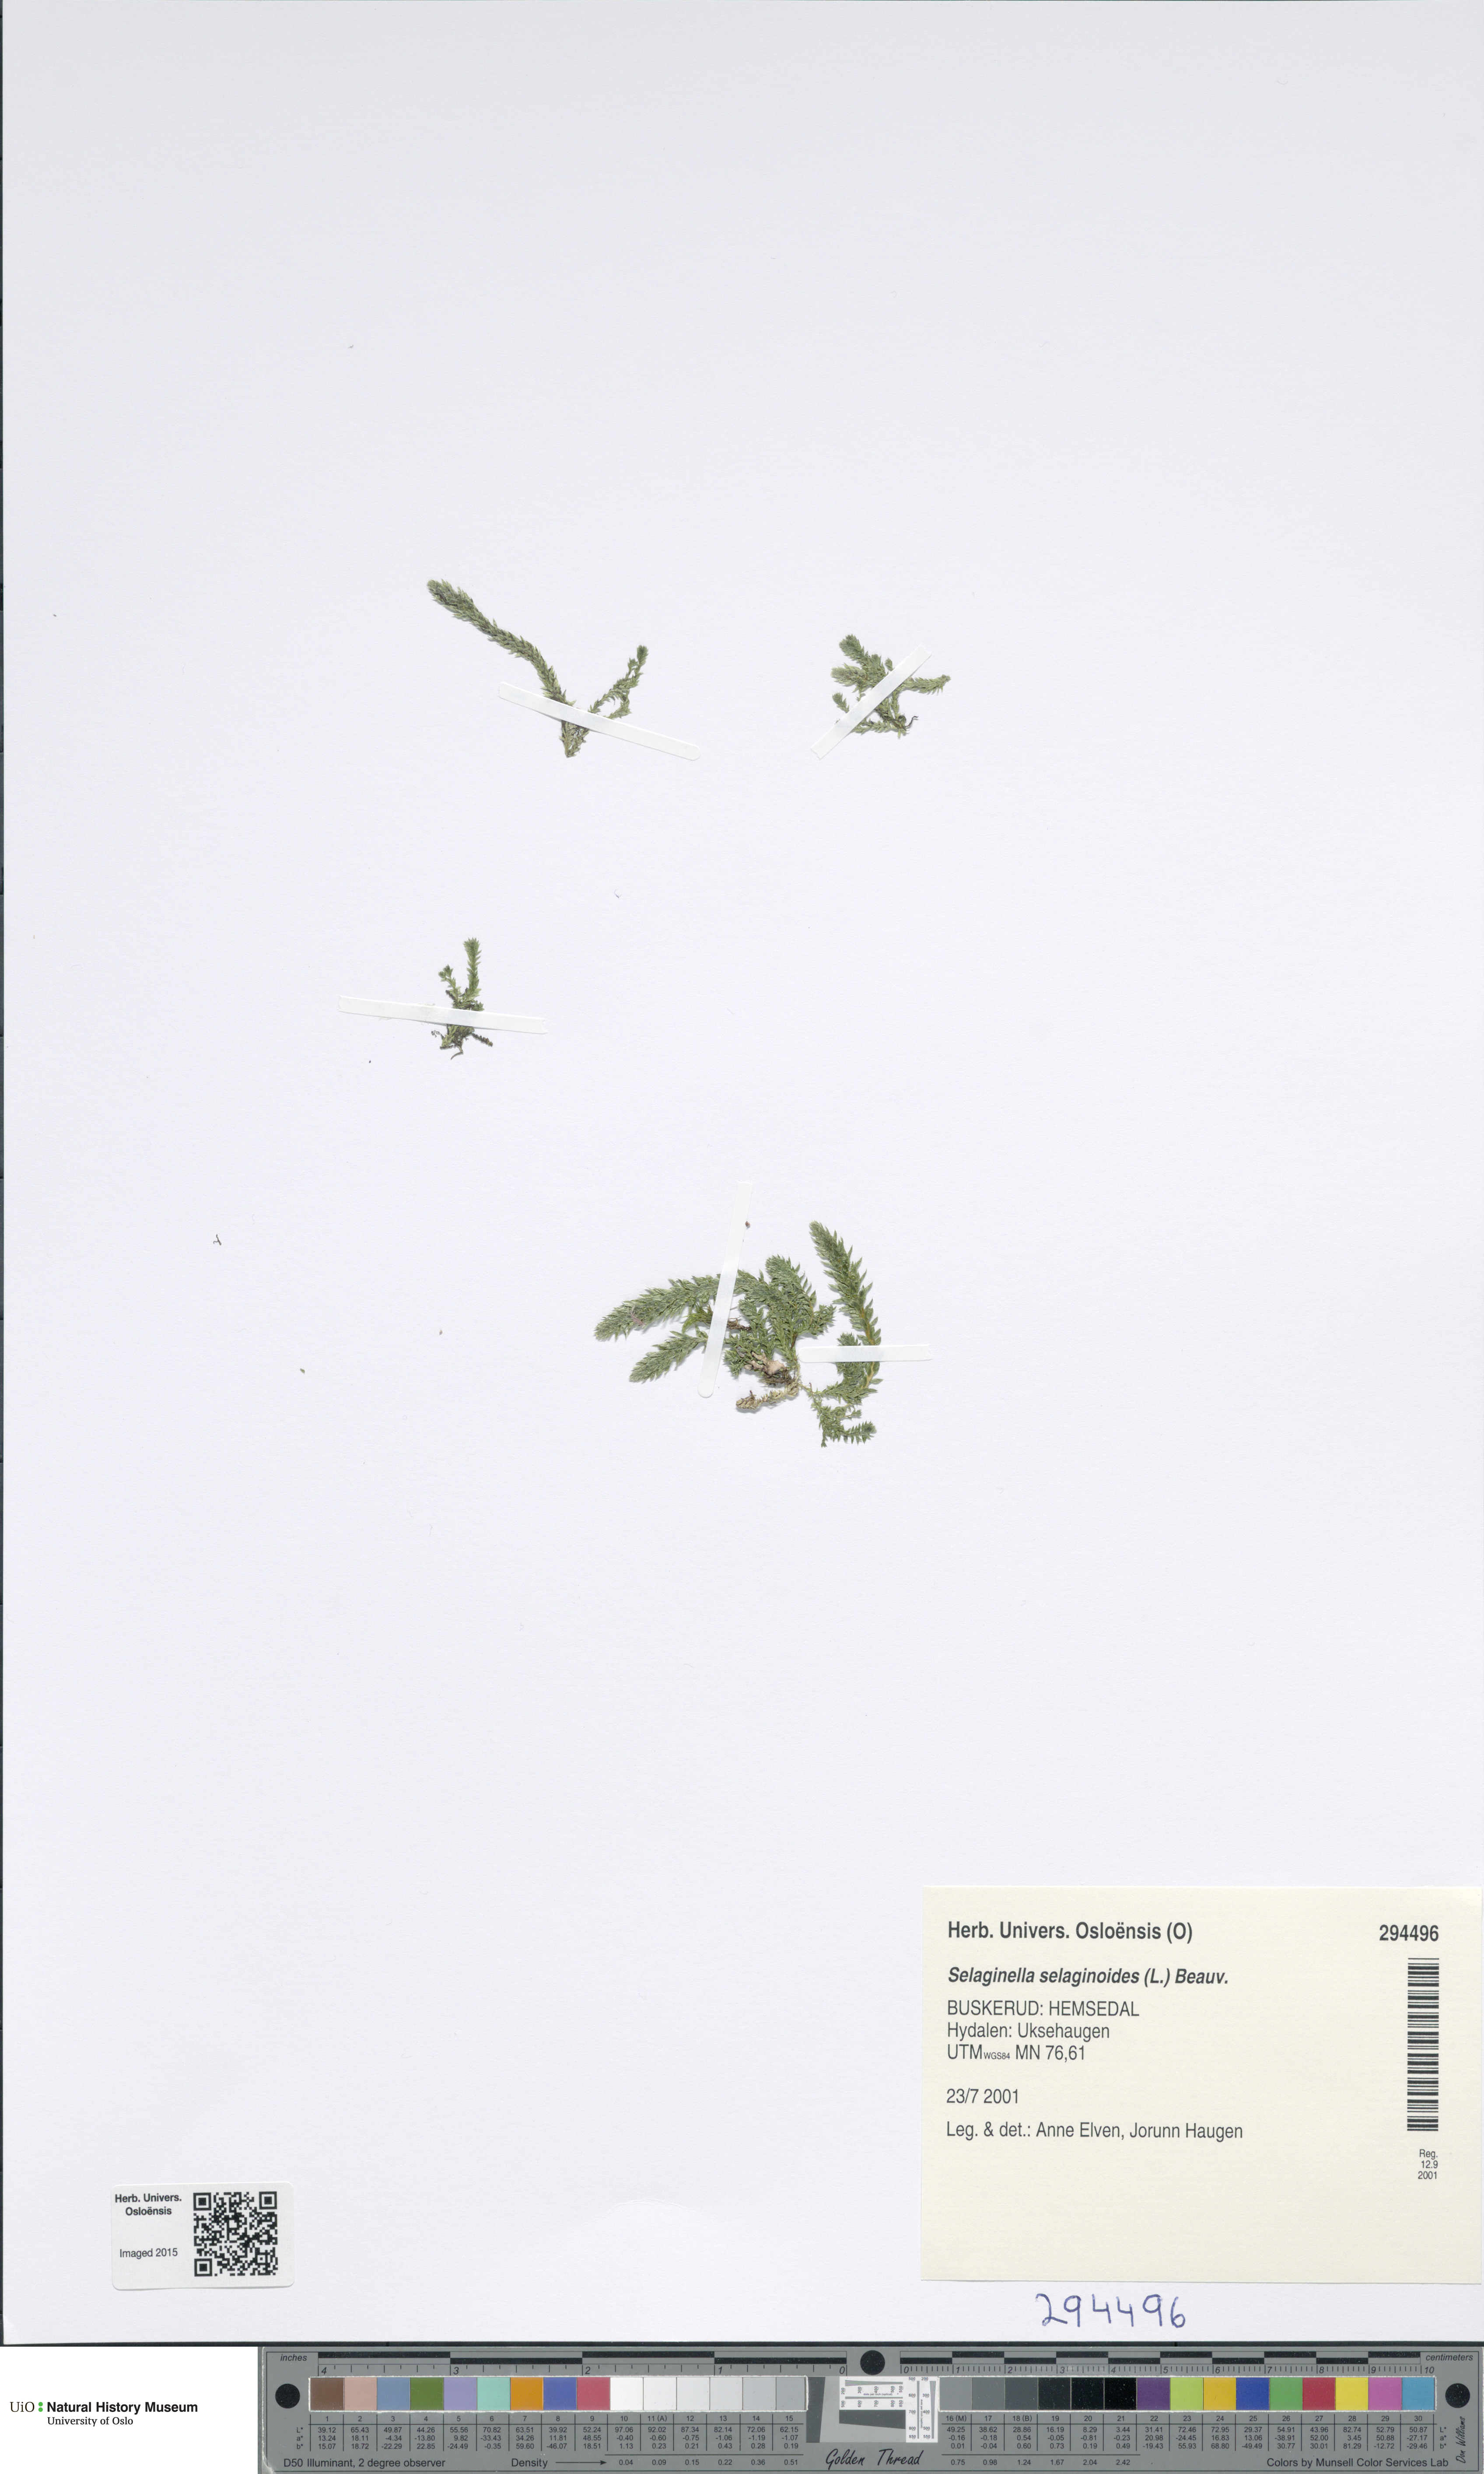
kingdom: Plantae
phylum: Tracheophyta
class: Lycopodiopsida
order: Selaginellales
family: Selaginellaceae
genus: Selaginella
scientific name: Selaginella selaginoides
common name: Prickly mountain-moss
